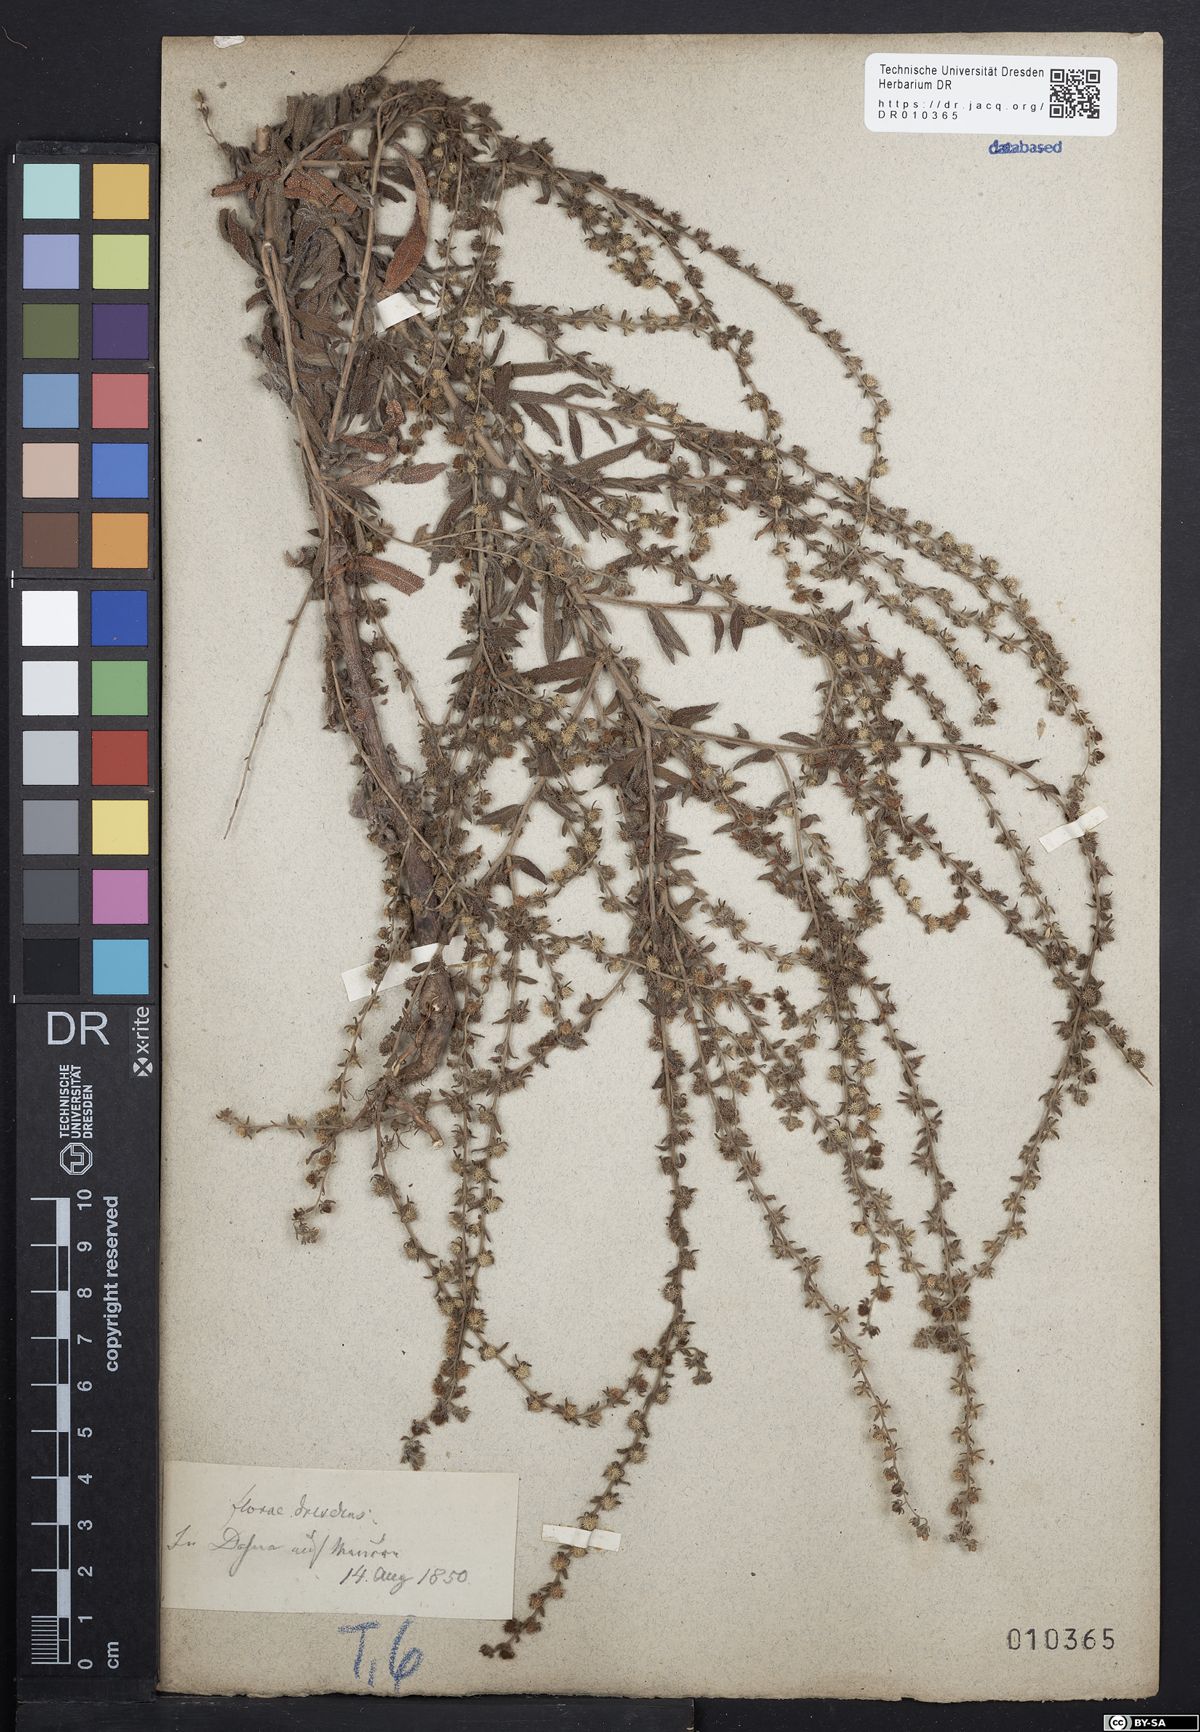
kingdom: Plantae
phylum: Tracheophyta
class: Magnoliopsida
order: Boraginales
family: Boraginaceae
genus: Lappula
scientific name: Lappula squarrosa
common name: European stickseed
